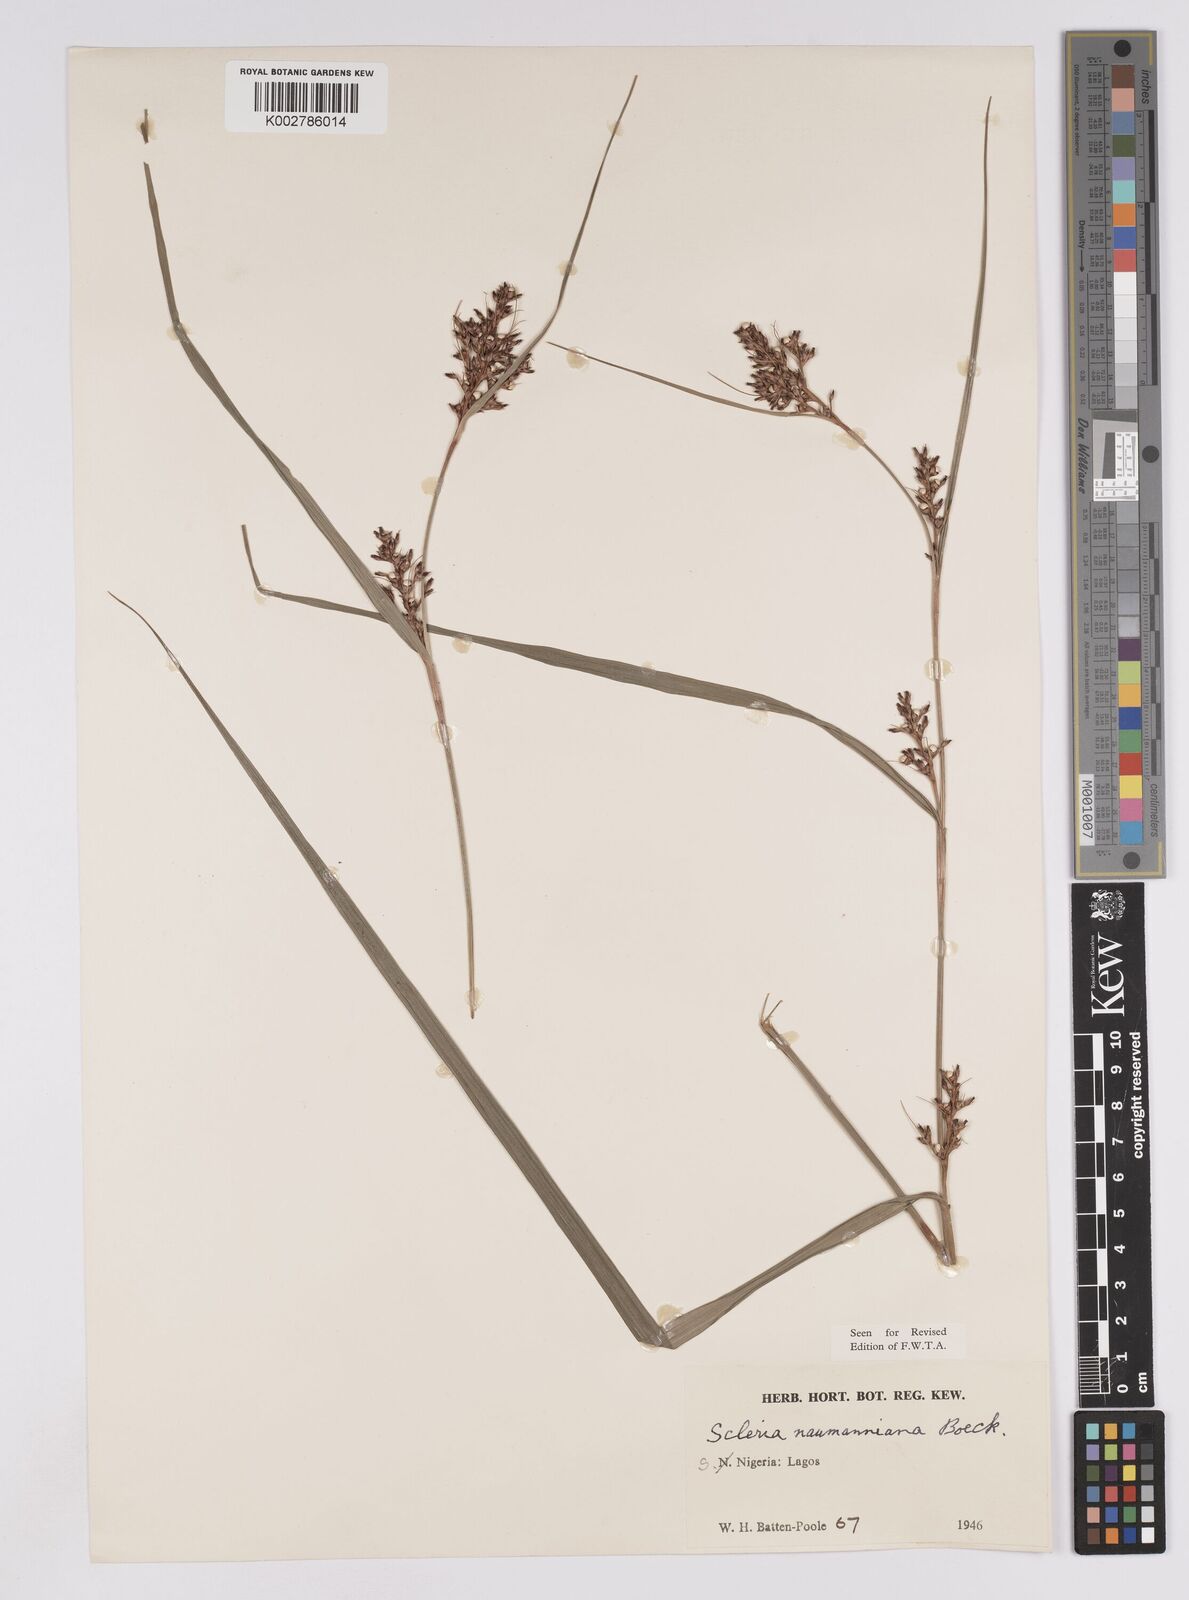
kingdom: Plantae
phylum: Tracheophyta
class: Liliopsida
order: Poales
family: Cyperaceae
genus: Scleria
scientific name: Scleria naumanniana
